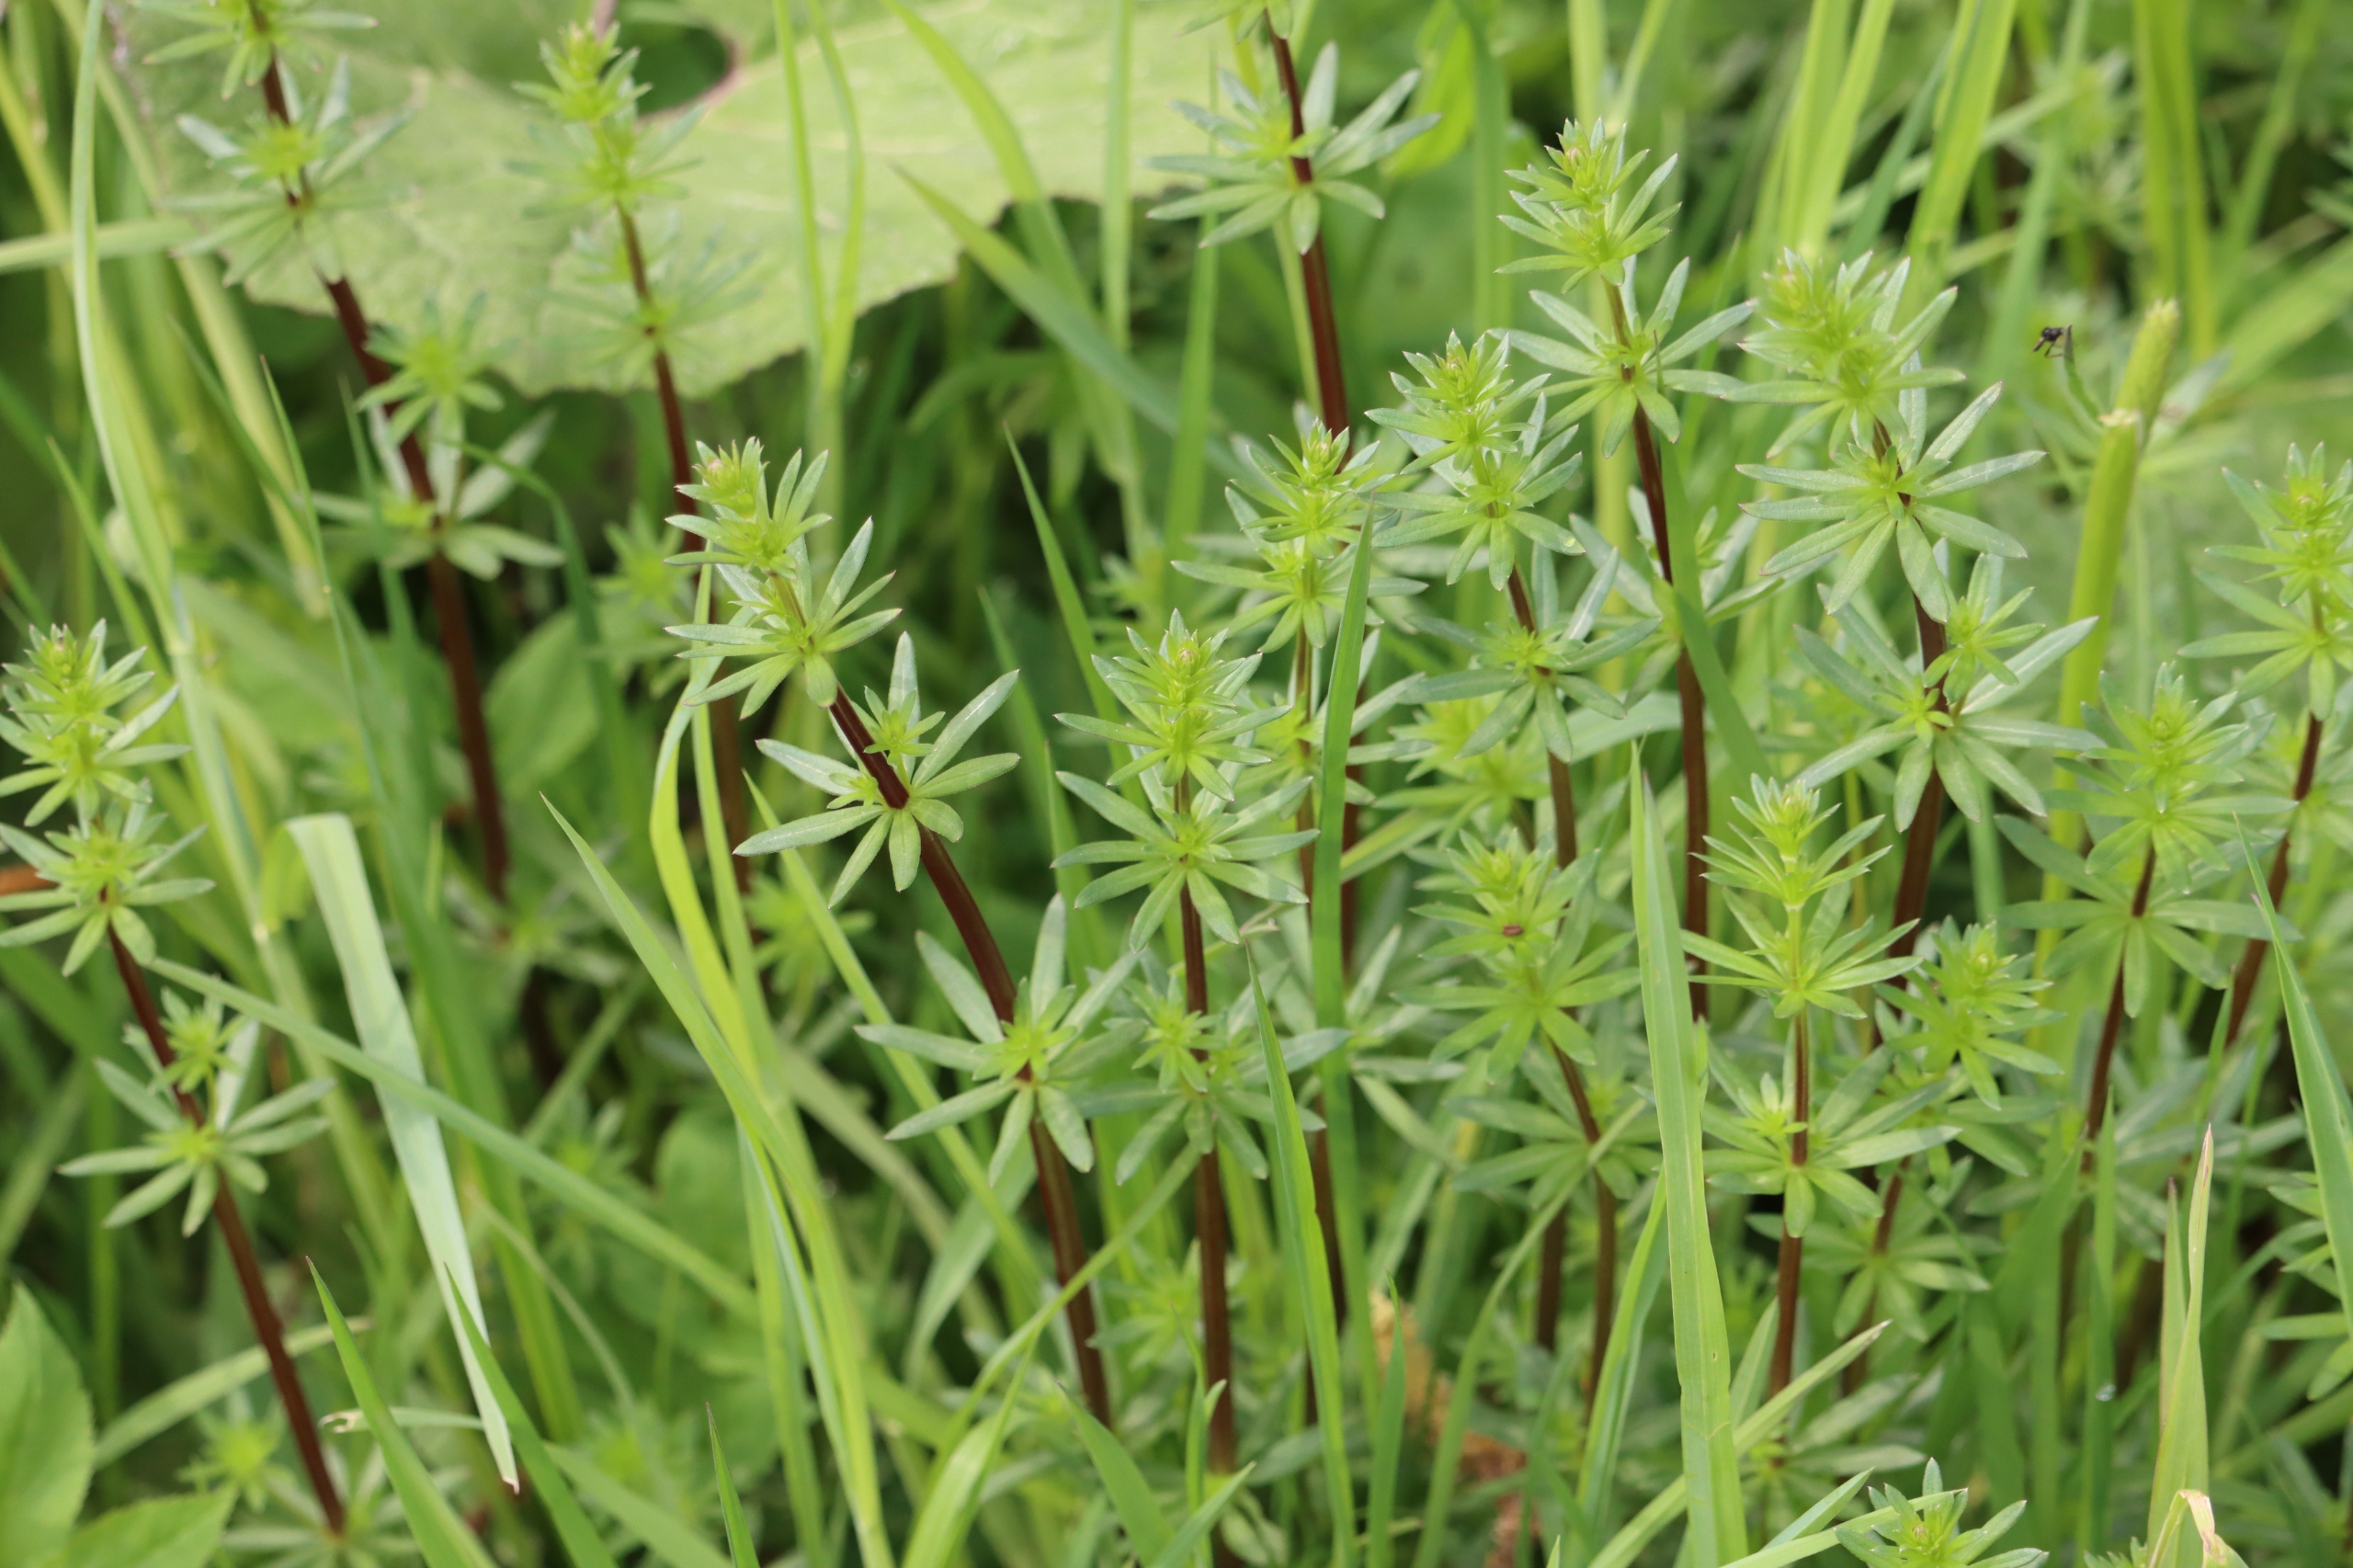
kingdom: Plantae
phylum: Tracheophyta
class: Magnoliopsida
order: Gentianales
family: Rubiaceae
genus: Galium
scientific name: Galium mollugo
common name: Hvid snerre
